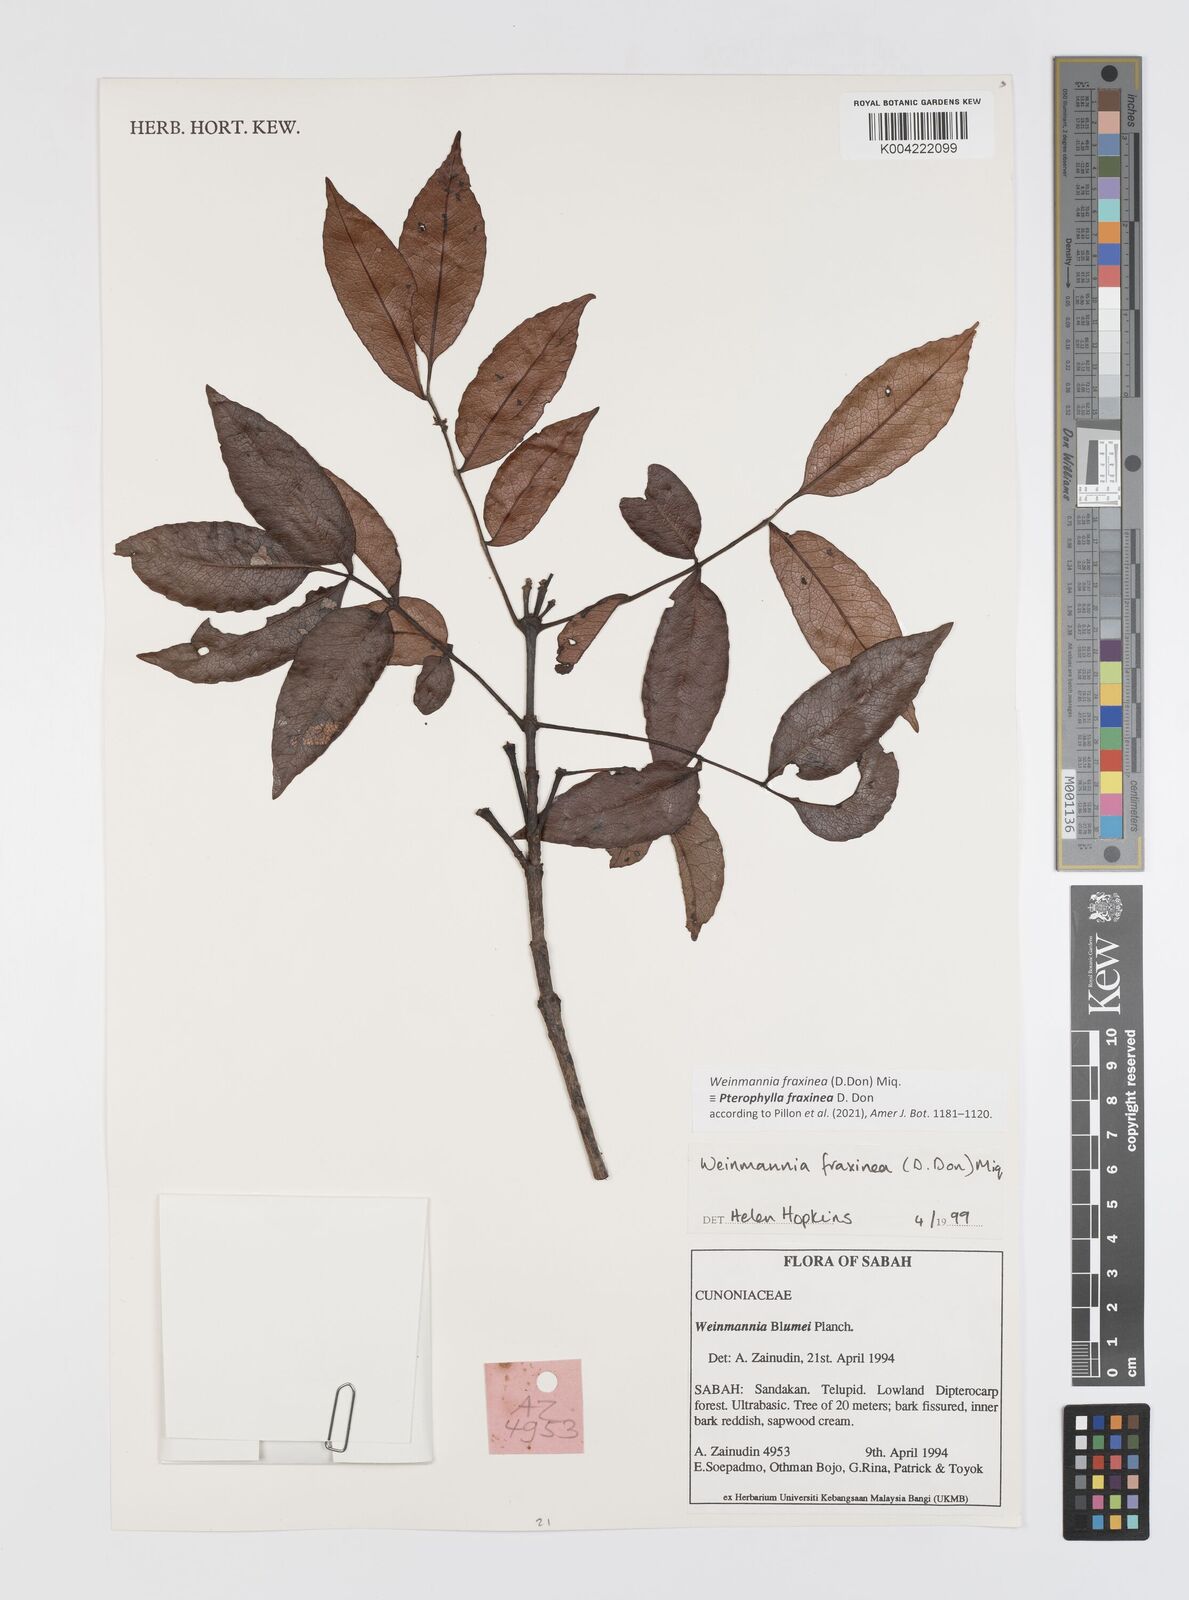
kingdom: Plantae
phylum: Tracheophyta
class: Magnoliopsida
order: Oxalidales
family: Cunoniaceae
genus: Pterophylla
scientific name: Pterophylla fraxinea
